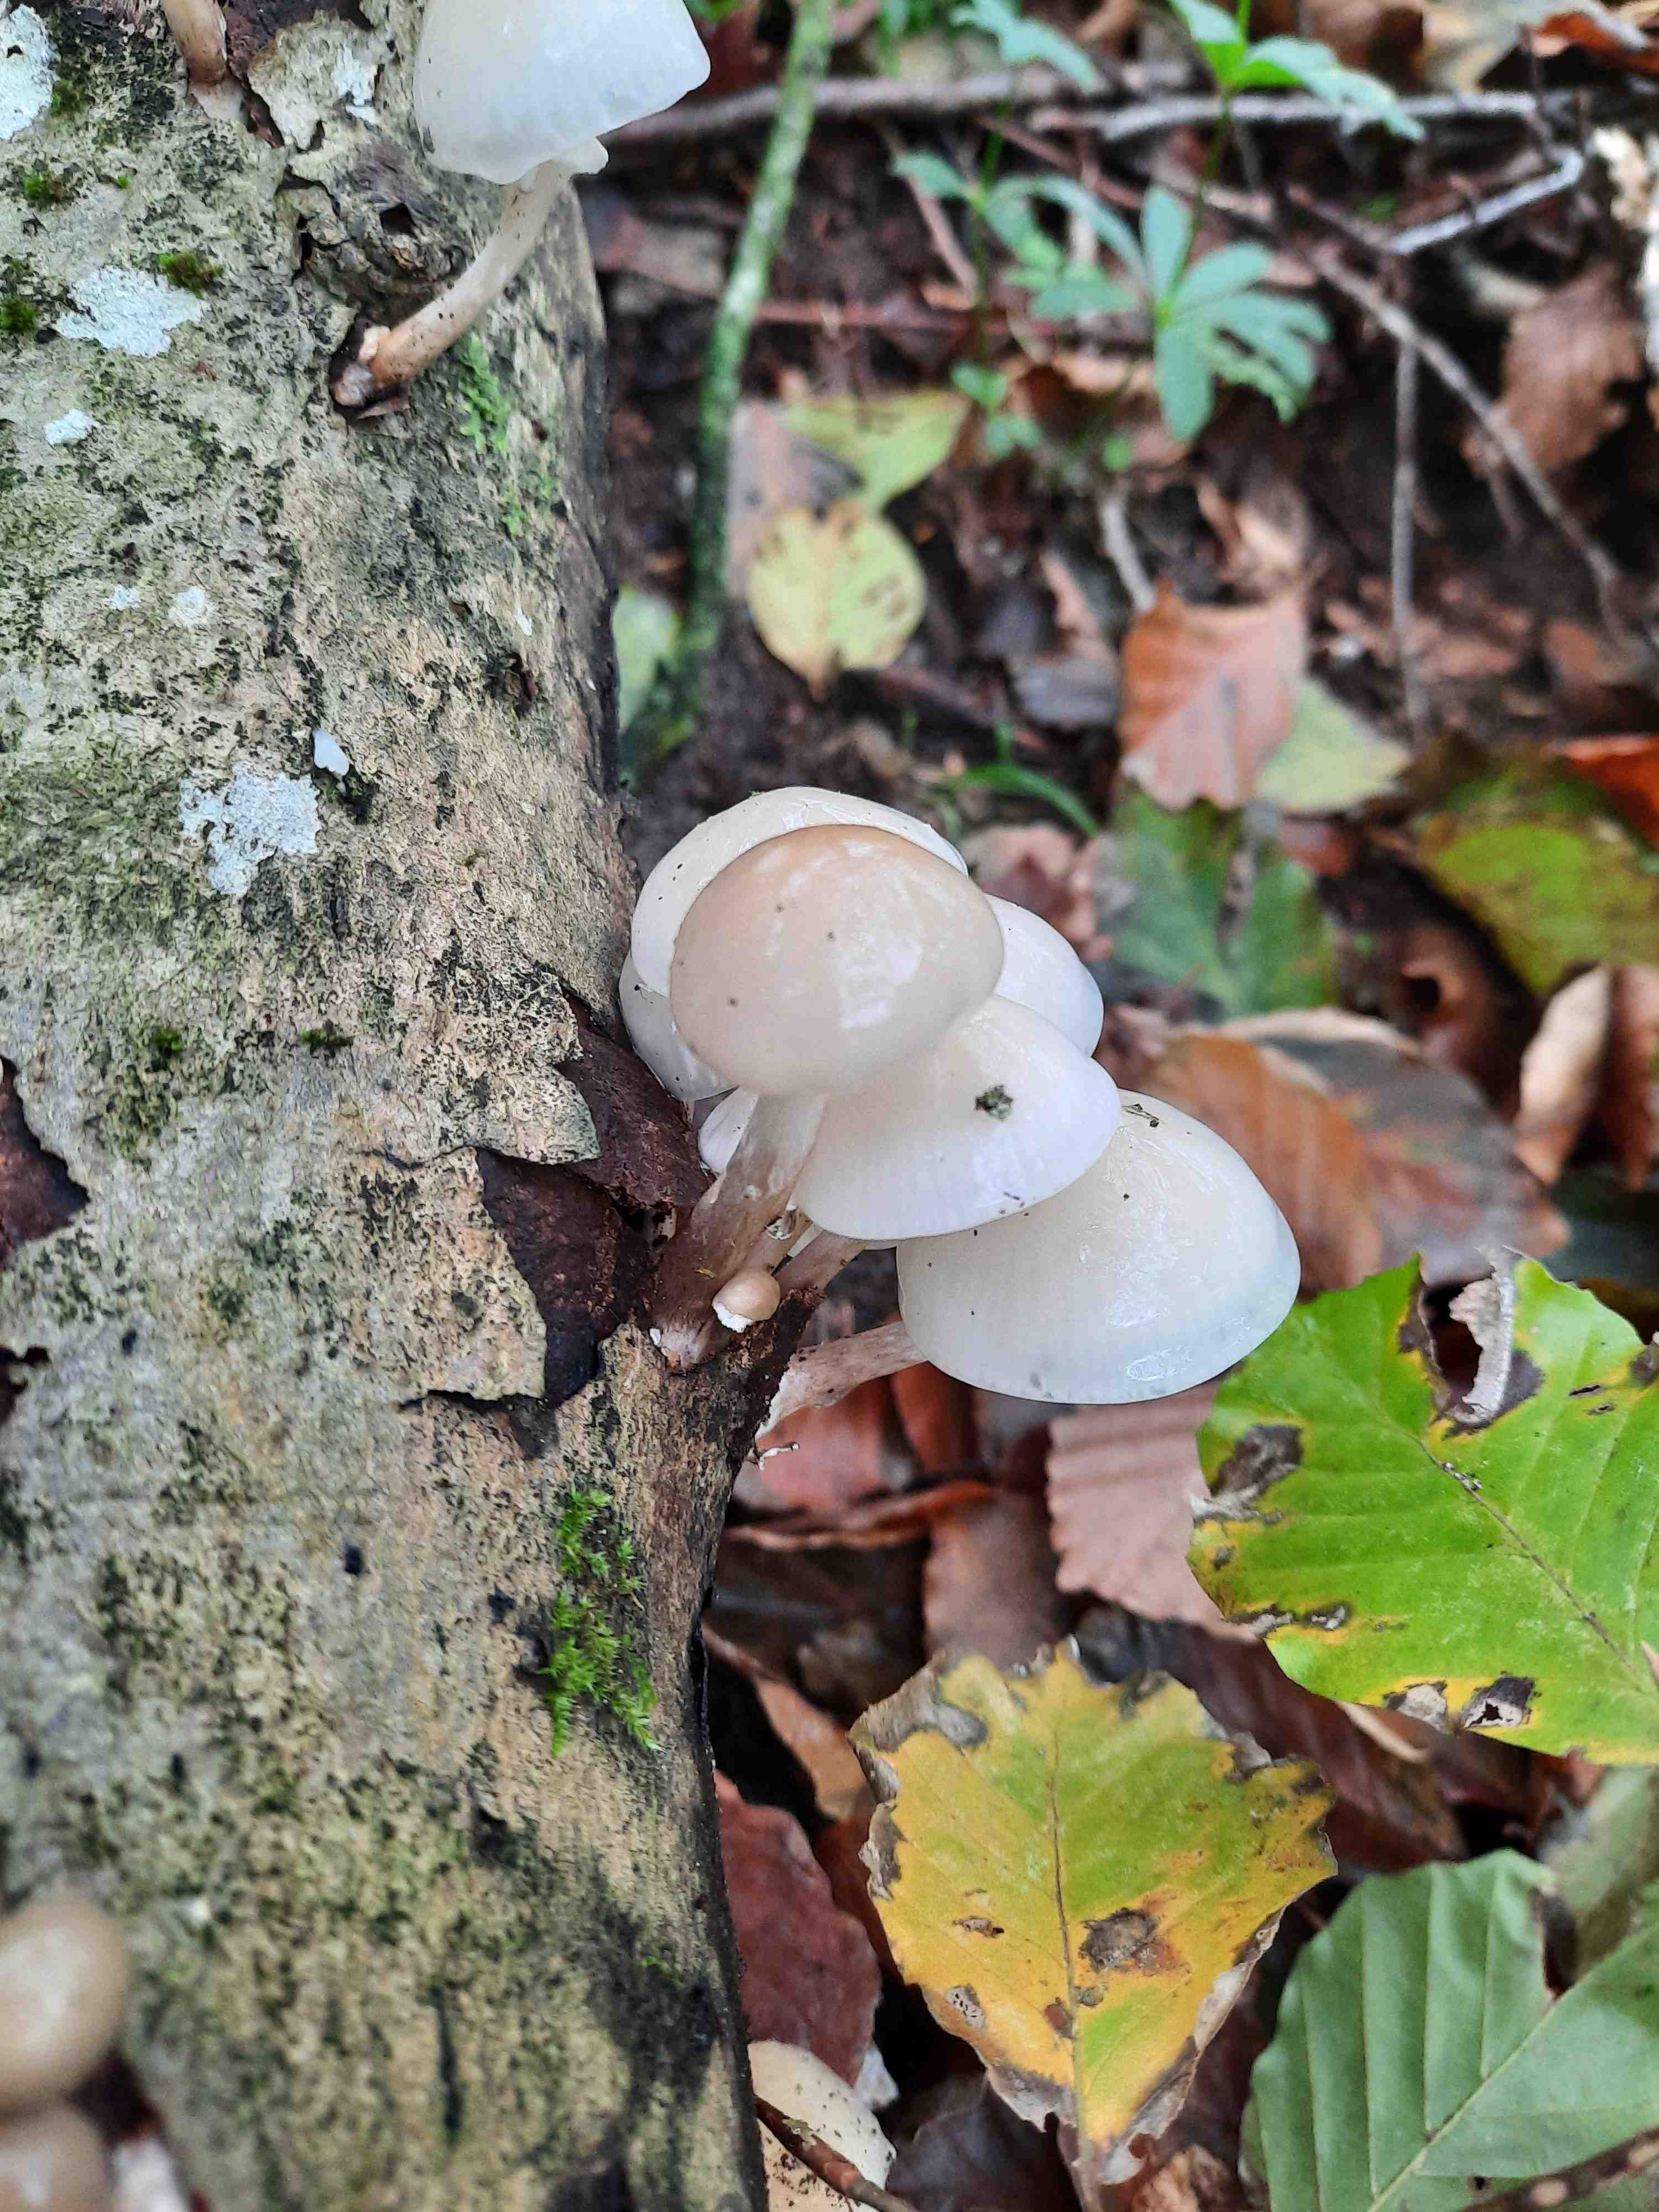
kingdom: Fungi
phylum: Basidiomycota
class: Agaricomycetes
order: Agaricales
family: Physalacriaceae
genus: Mucidula
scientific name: Mucidula mucida
